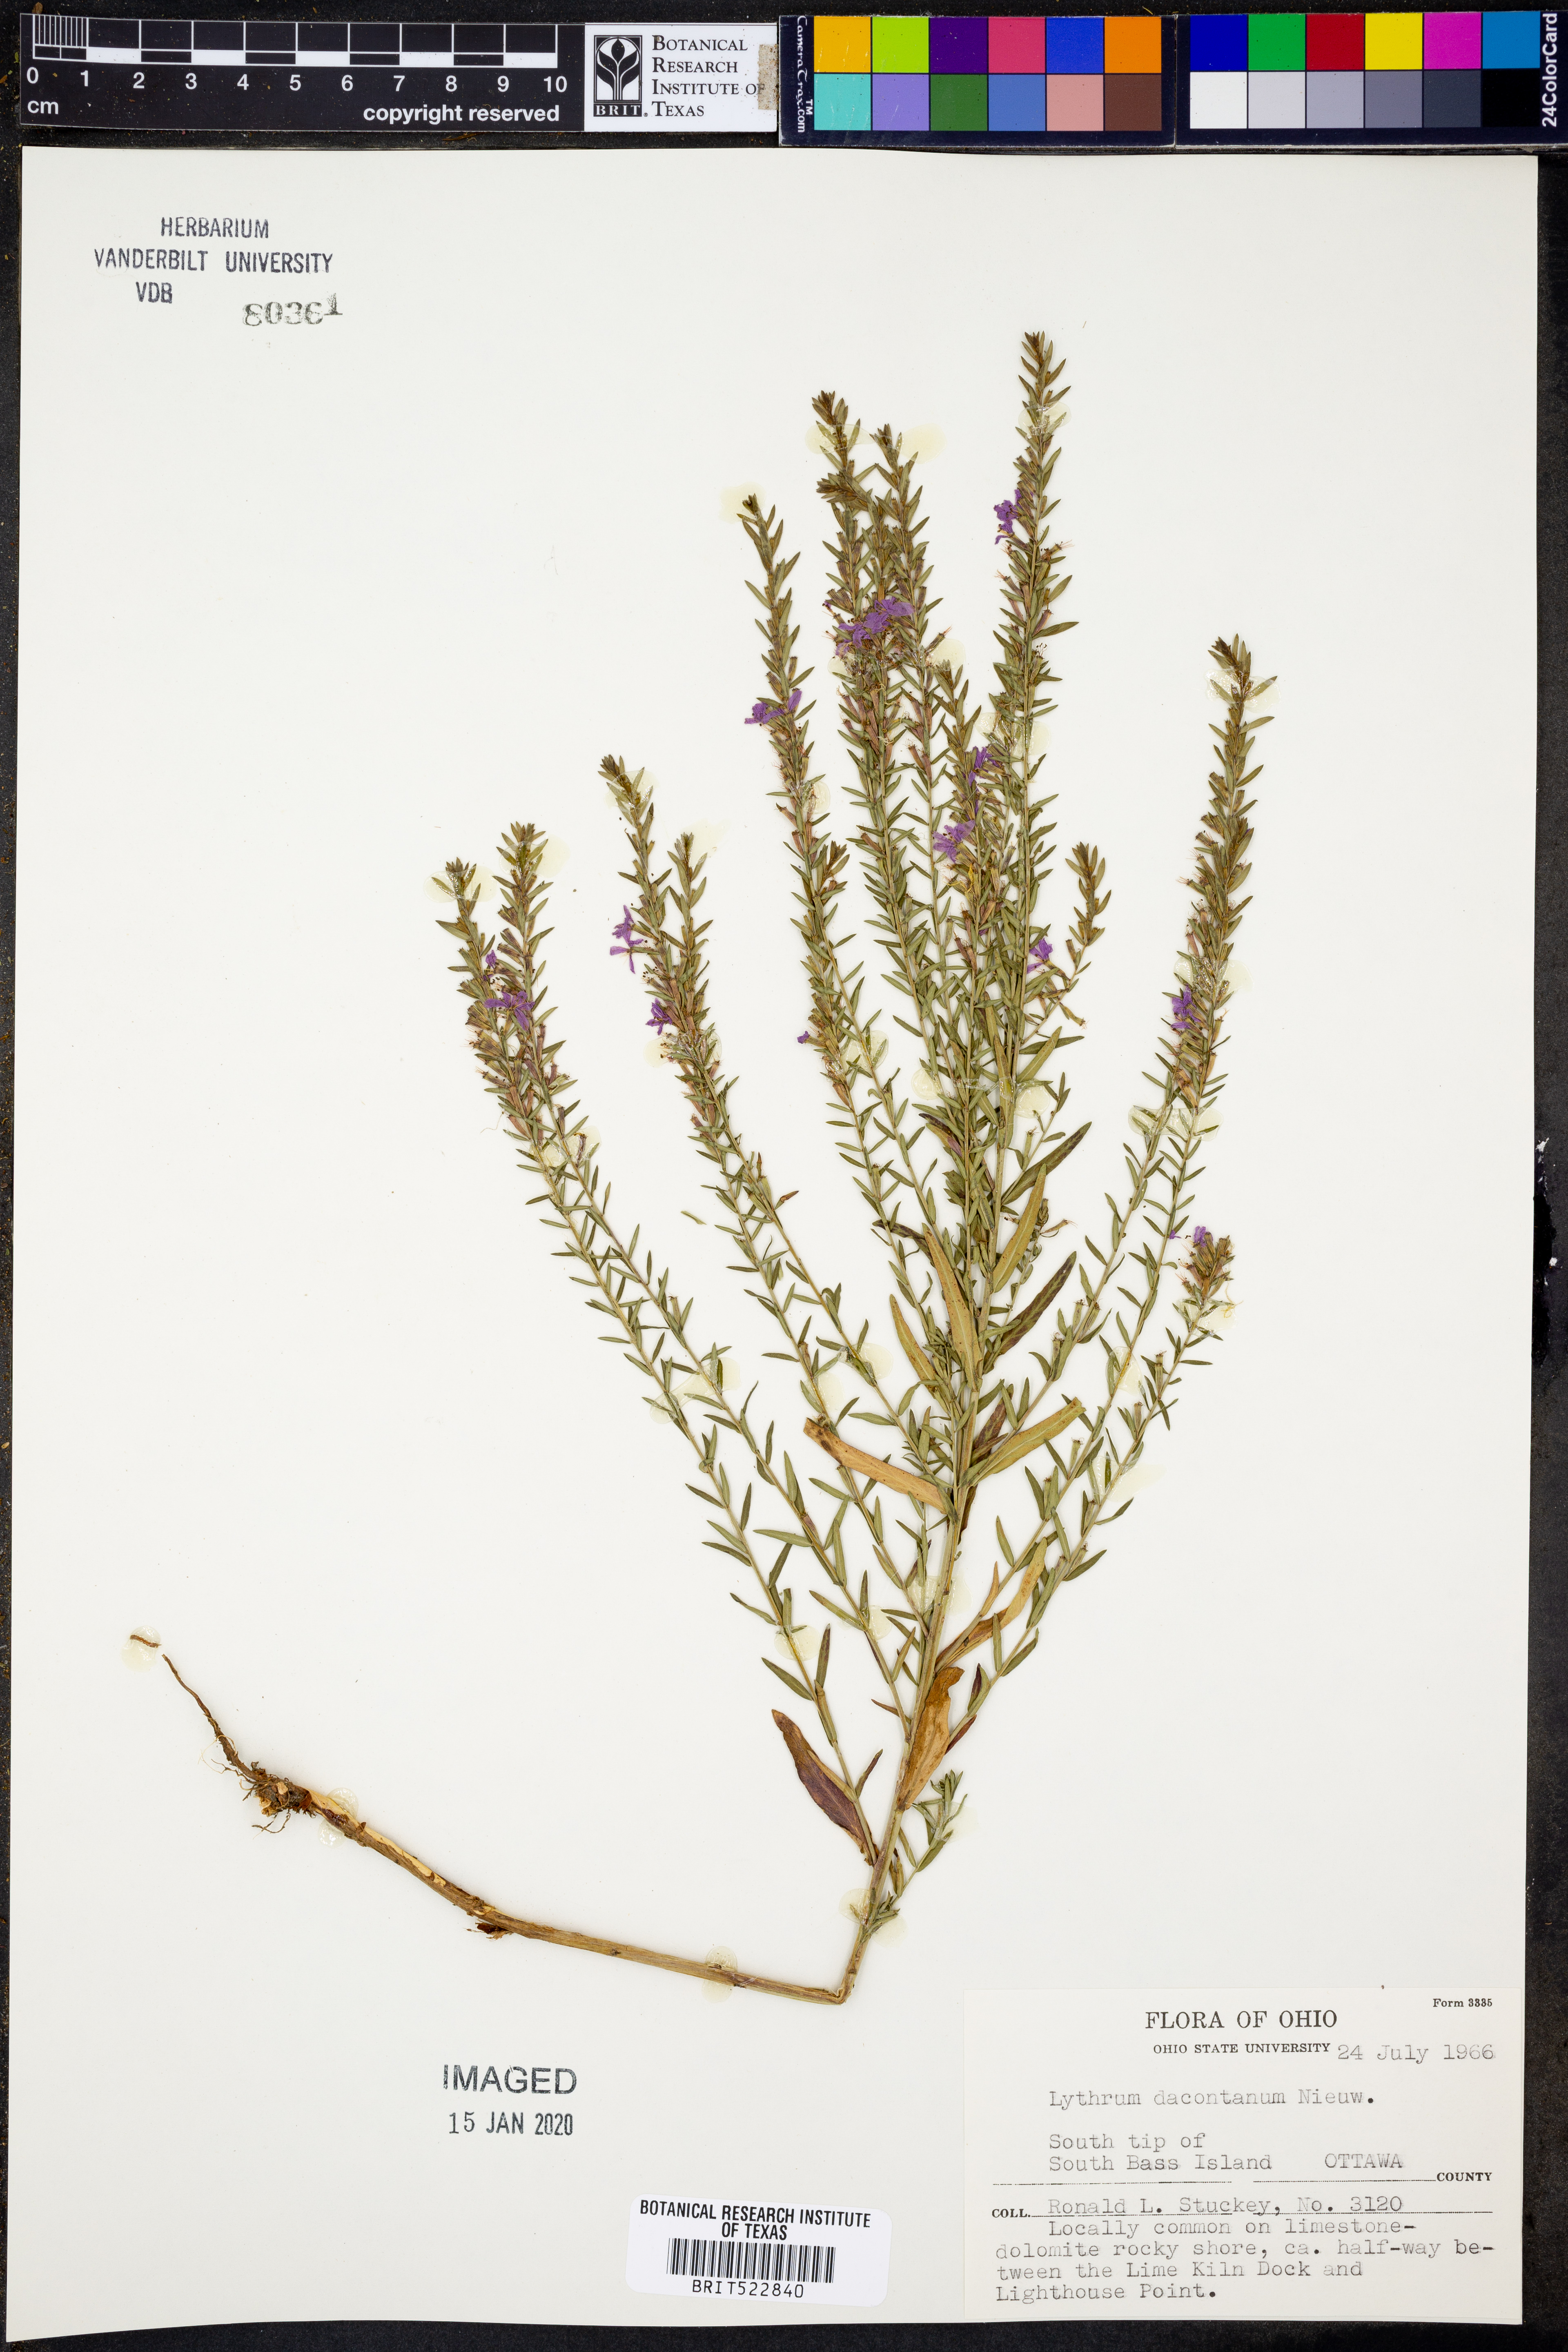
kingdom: Plantae
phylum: Tracheophyta
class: Magnoliopsida
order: Myrtales
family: Lythraceae
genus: Lythrum
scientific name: Lythrum alatum
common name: Winged loosestrife
